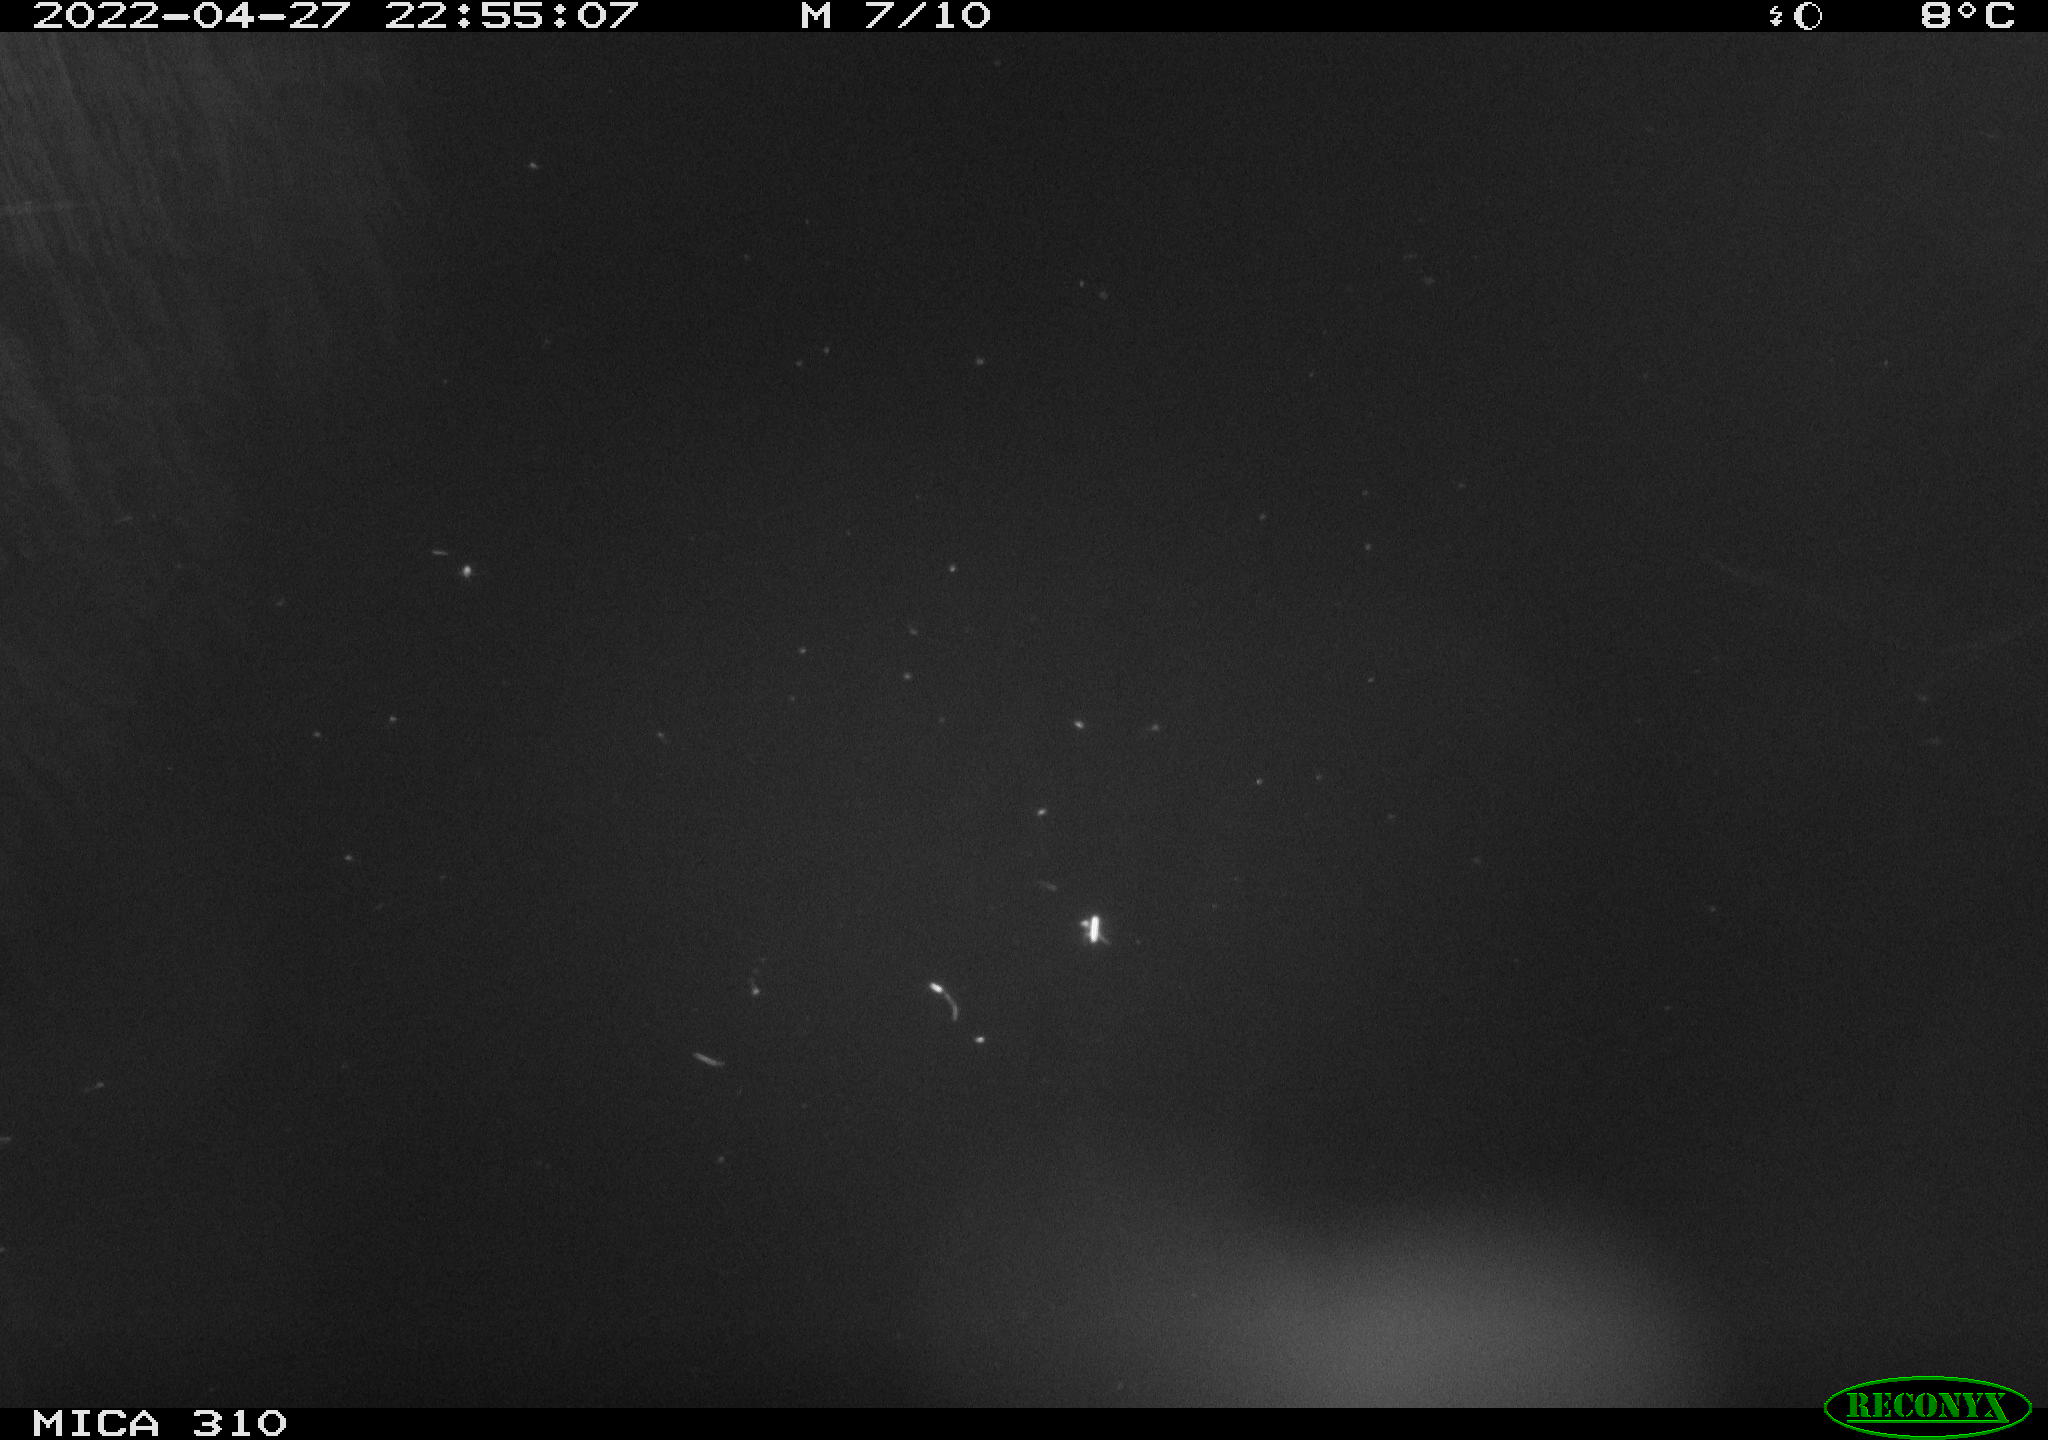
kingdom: Animalia
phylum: Chordata
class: Aves
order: Anseriformes
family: Anatidae
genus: Anas
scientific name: Anas platyrhynchos
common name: Mallard
